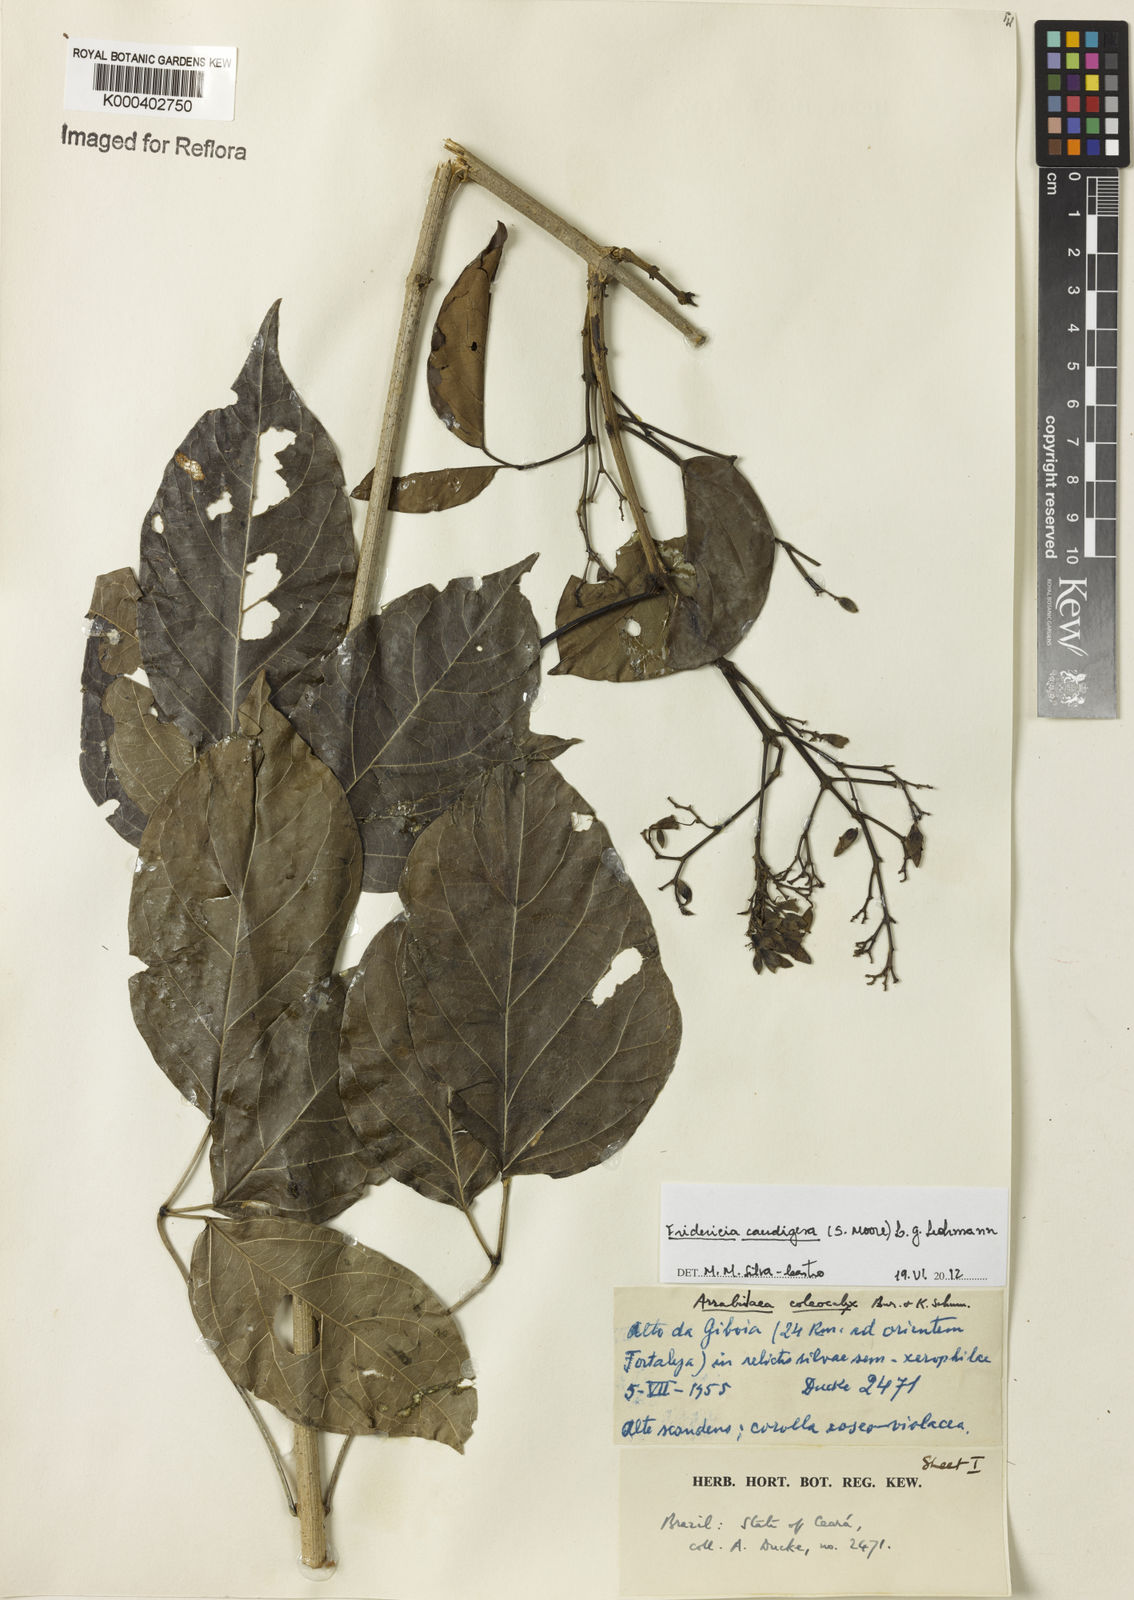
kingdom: Plantae
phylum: Tracheophyta
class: Magnoliopsida
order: Lamiales
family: Bignoniaceae
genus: Fridericia
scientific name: Fridericia caudigera
